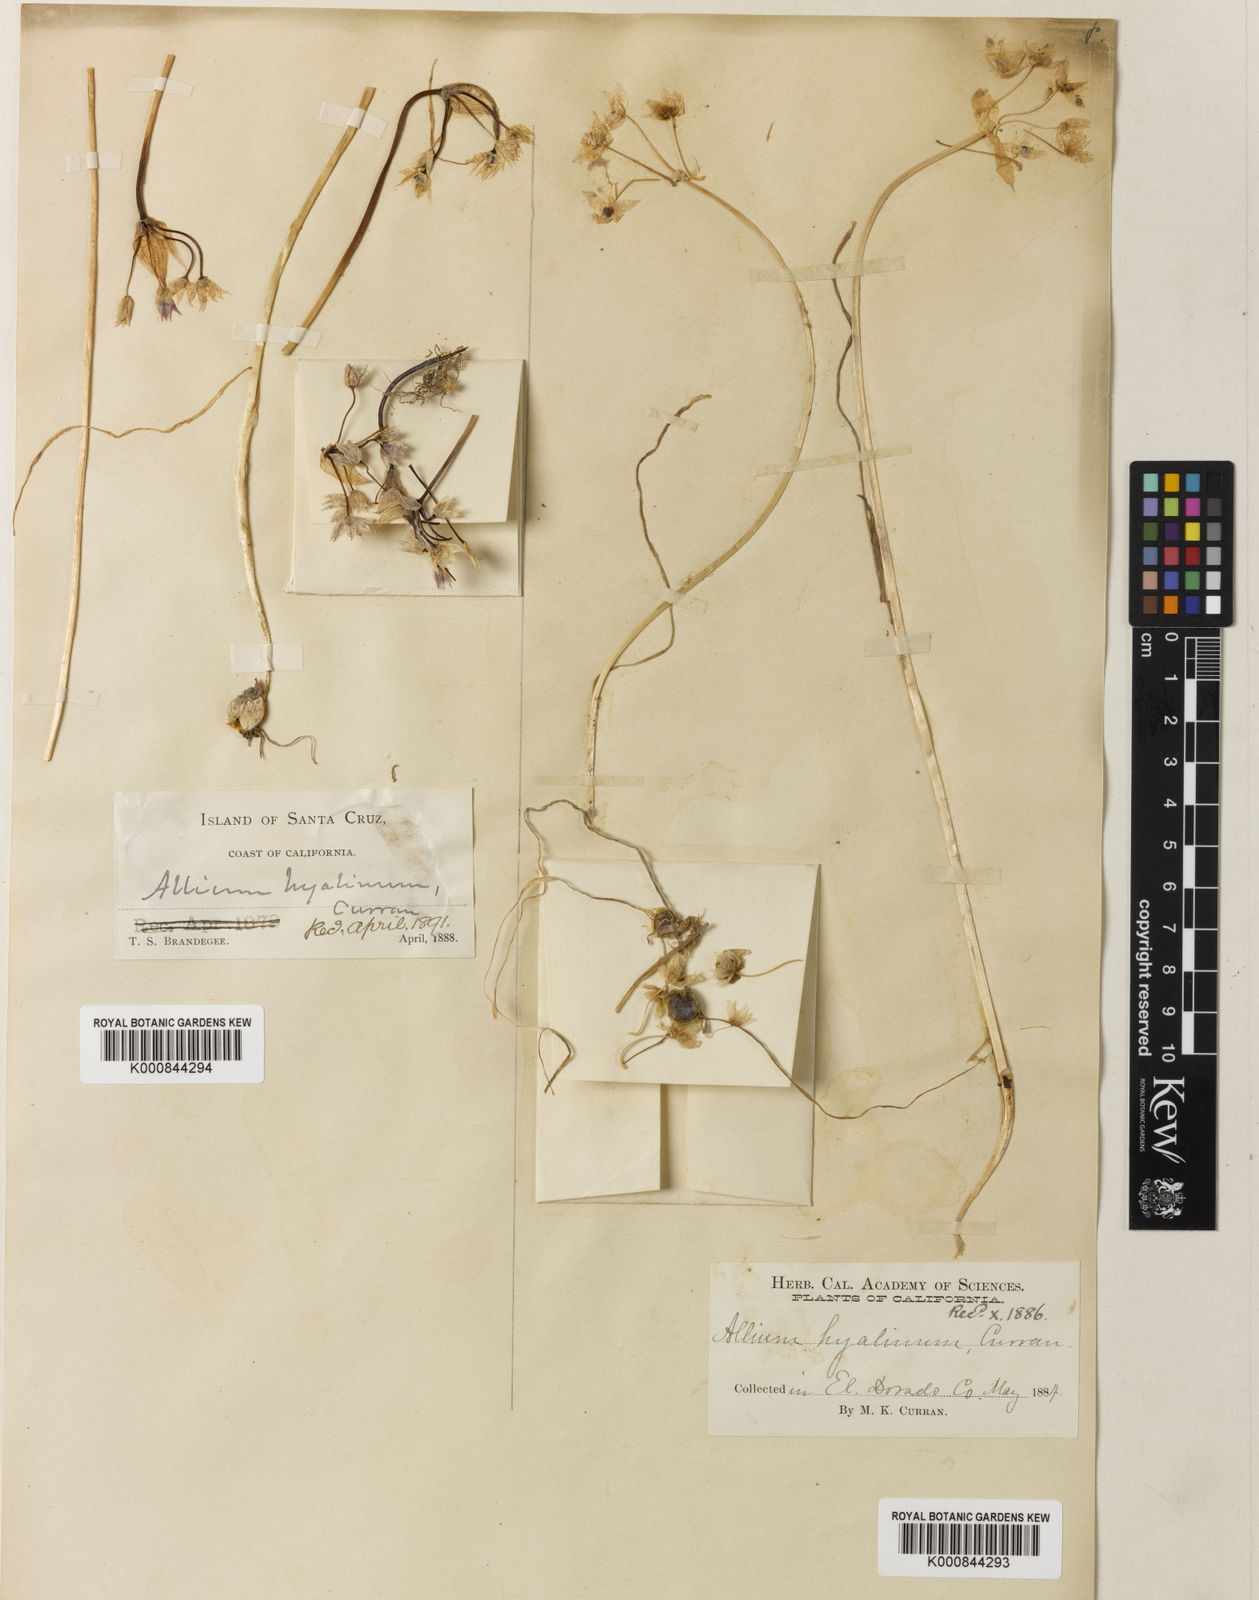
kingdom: Plantae
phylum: Tracheophyta
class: Liliopsida
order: Asparagales
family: Amaryllidaceae
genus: Allium
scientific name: Allium hyalinum
